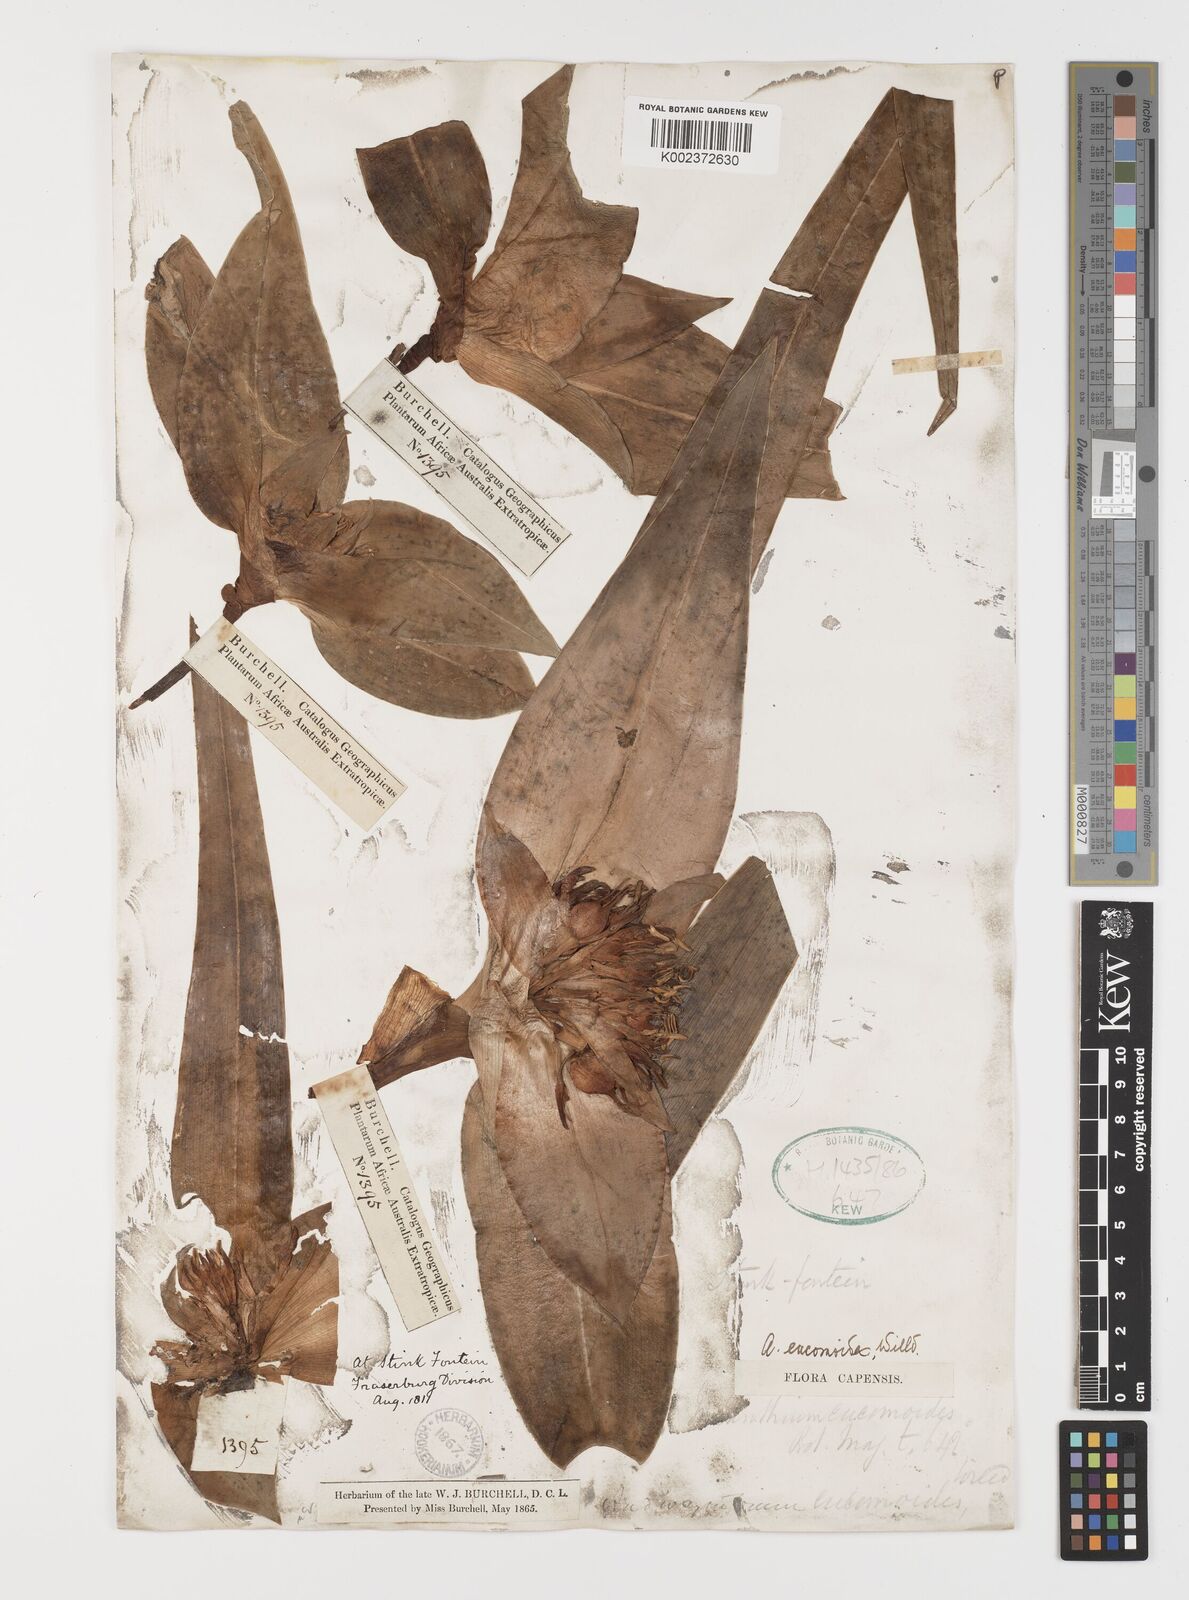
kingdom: Plantae
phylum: Tracheophyta
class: Liliopsida
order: Liliales
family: Colchicaceae
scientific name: Colchicaceae
